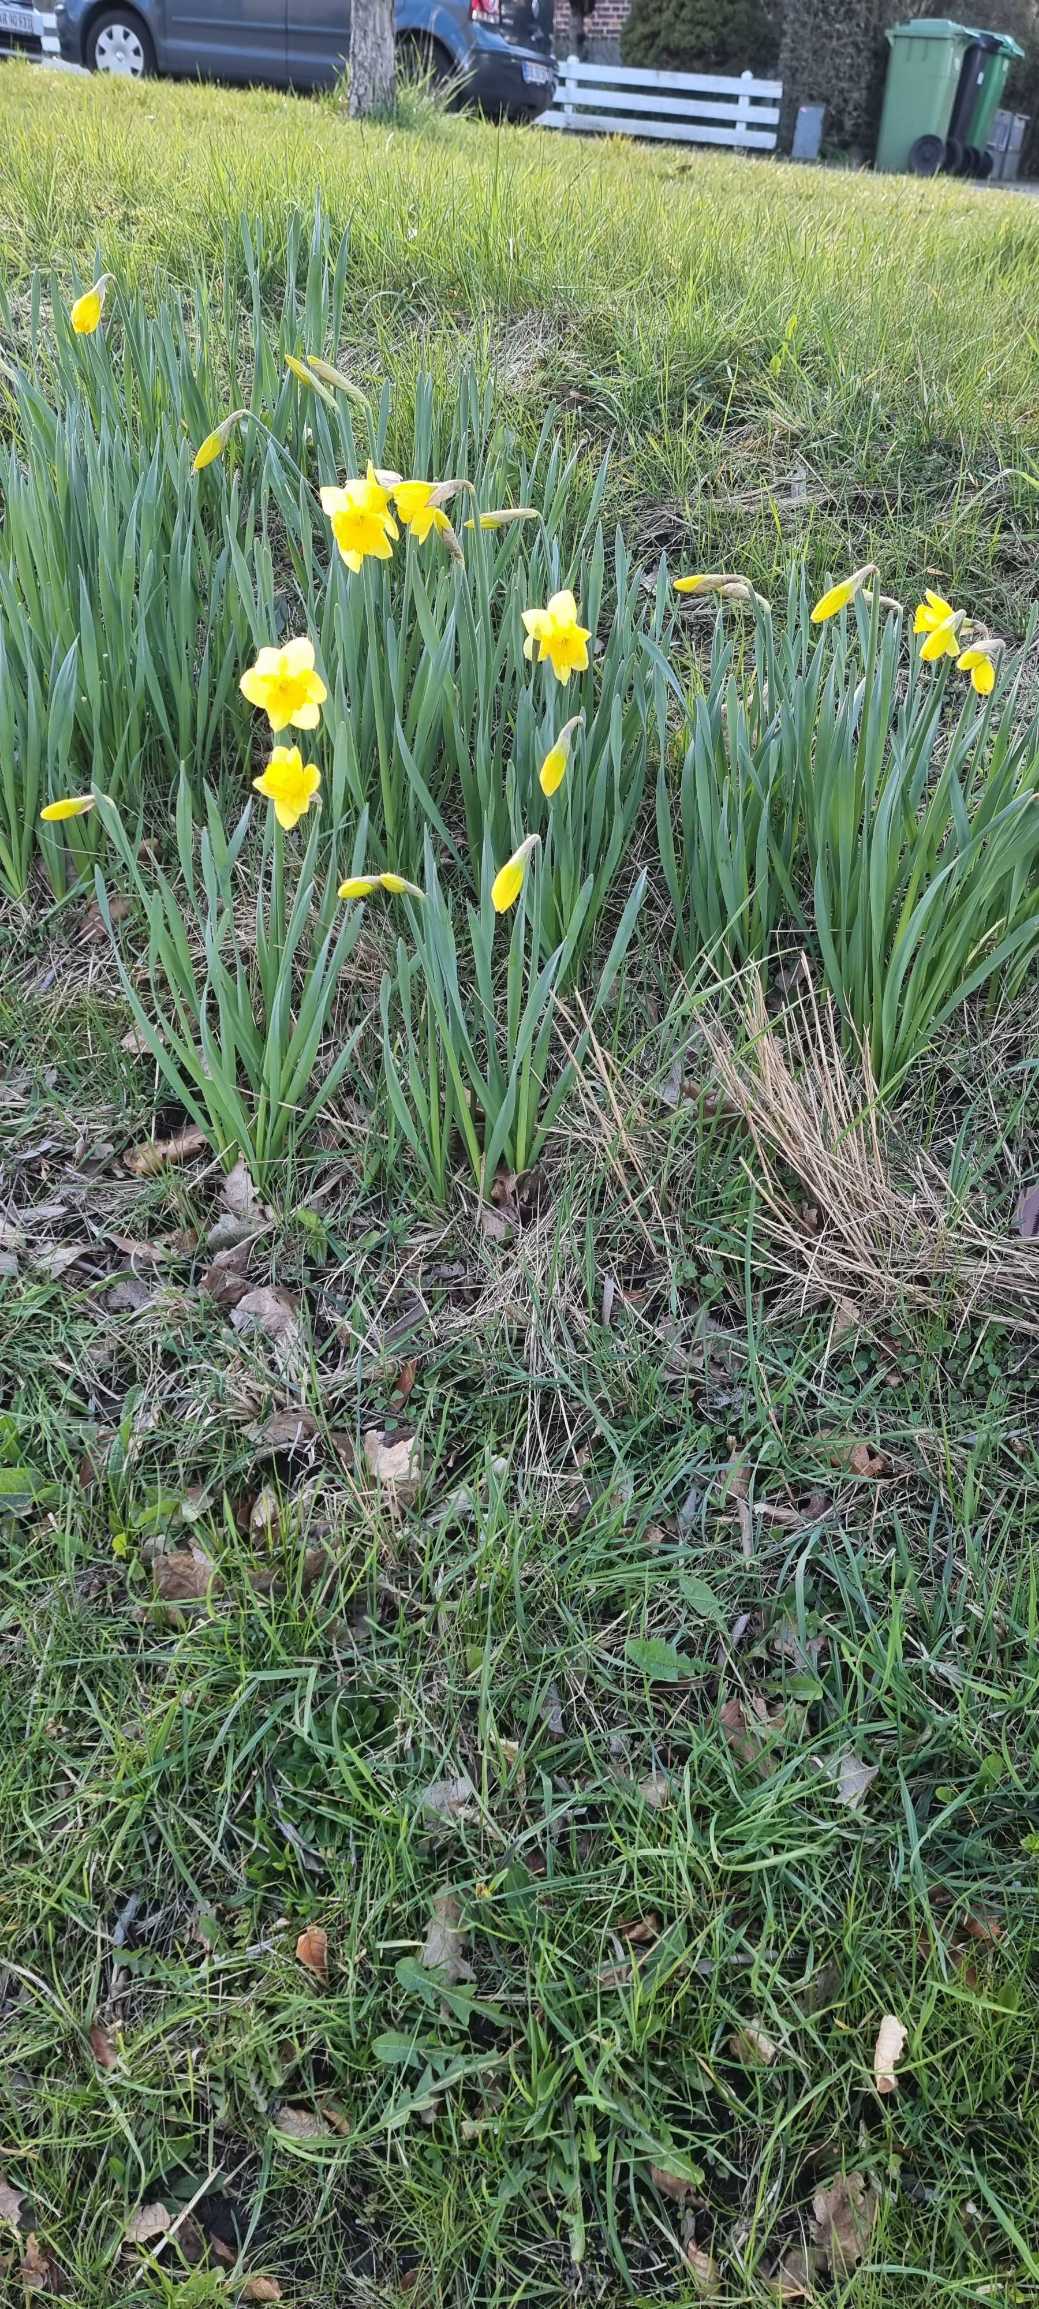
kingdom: Plantae
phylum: Tracheophyta
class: Liliopsida
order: Asparagales
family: Amaryllidaceae
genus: Narcissus
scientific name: Narcissus pseudonarcissus
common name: Påskelilje
